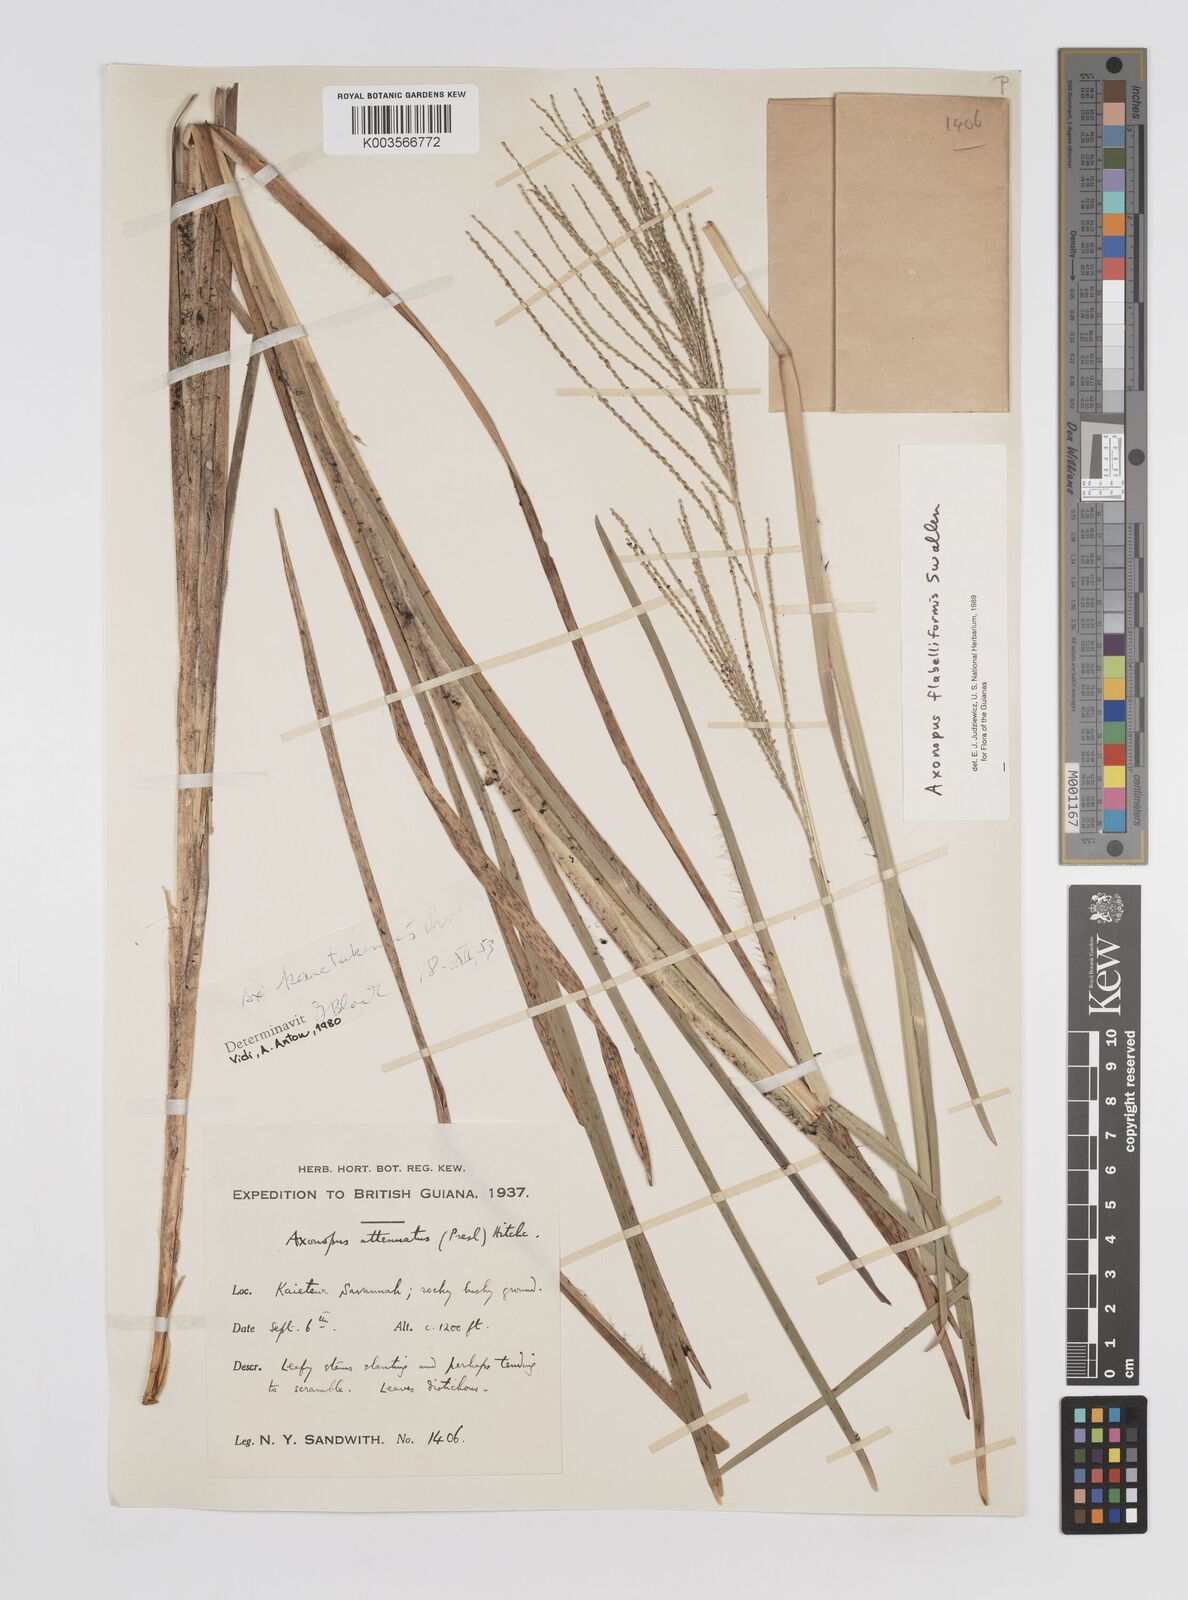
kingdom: Plantae
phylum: Tracheophyta
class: Liliopsida
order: Poales
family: Poaceae
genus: Axonopus
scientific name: Axonopus flabelliformis
